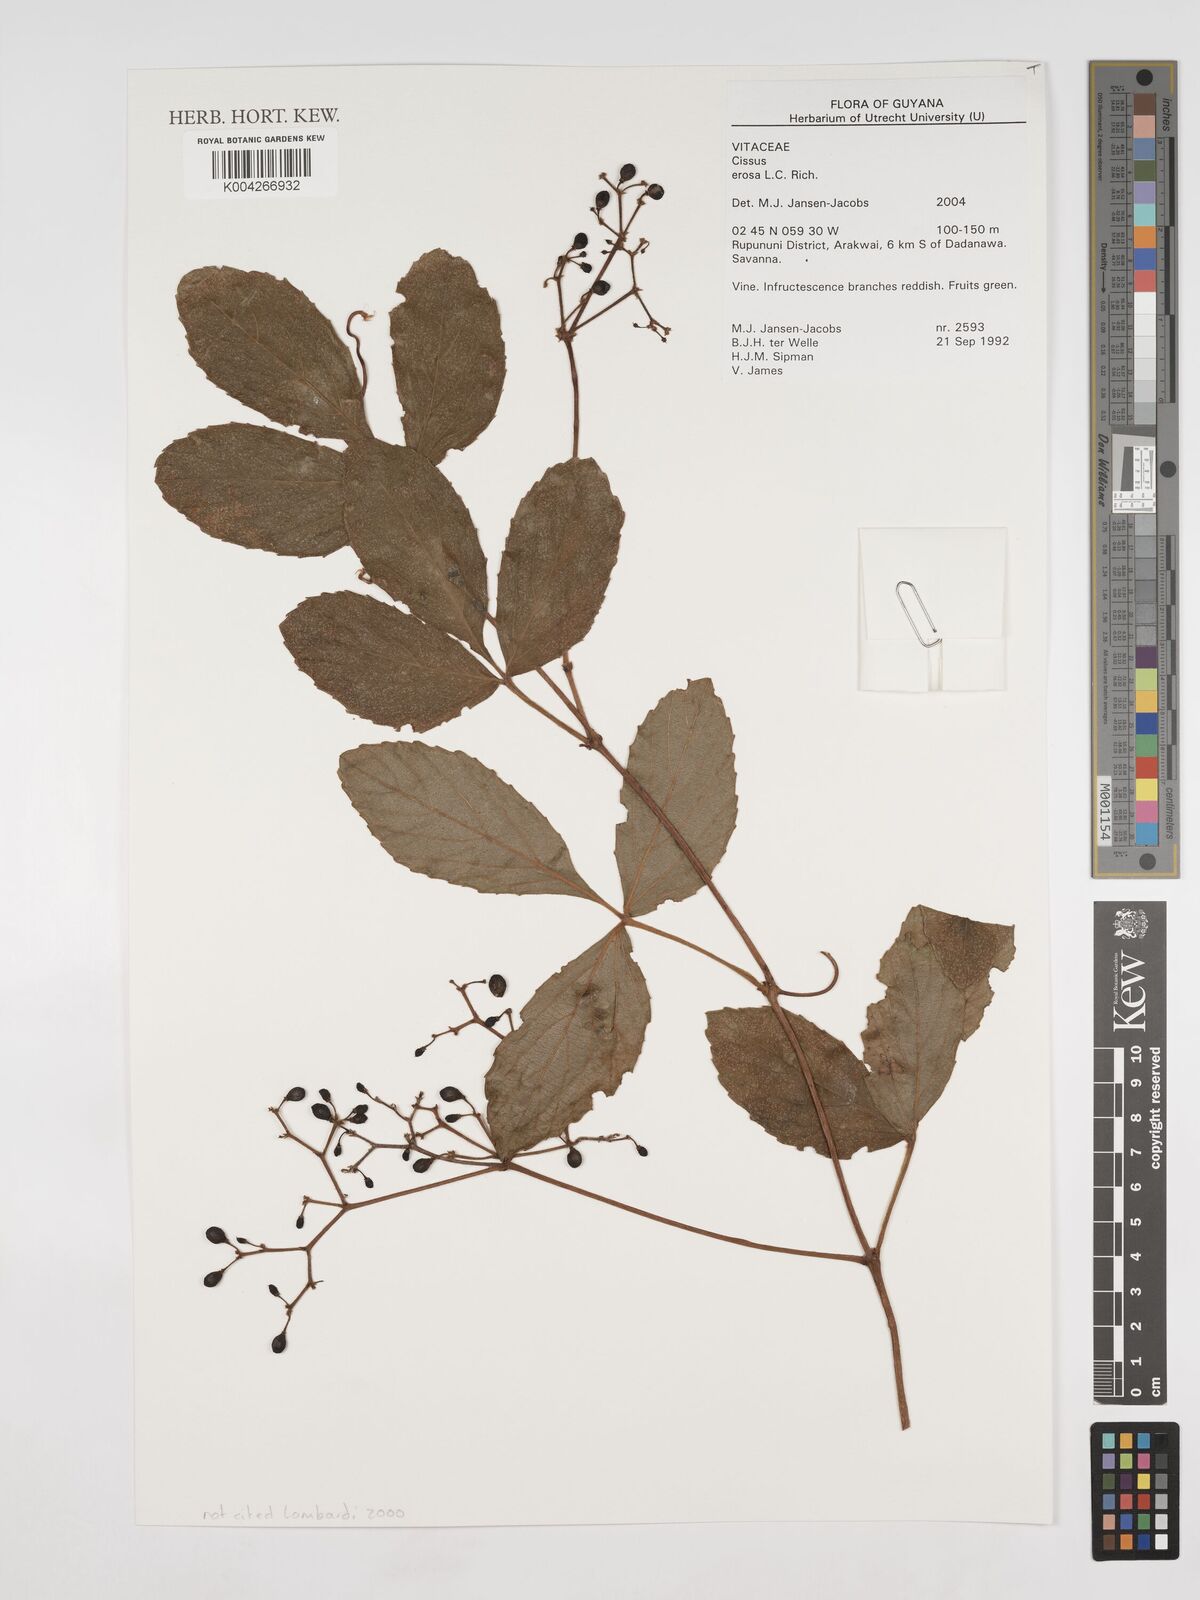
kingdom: Plantae
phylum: Tracheophyta
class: Magnoliopsida
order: Vitales
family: Vitaceae
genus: Cissus
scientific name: Cissus erosa
